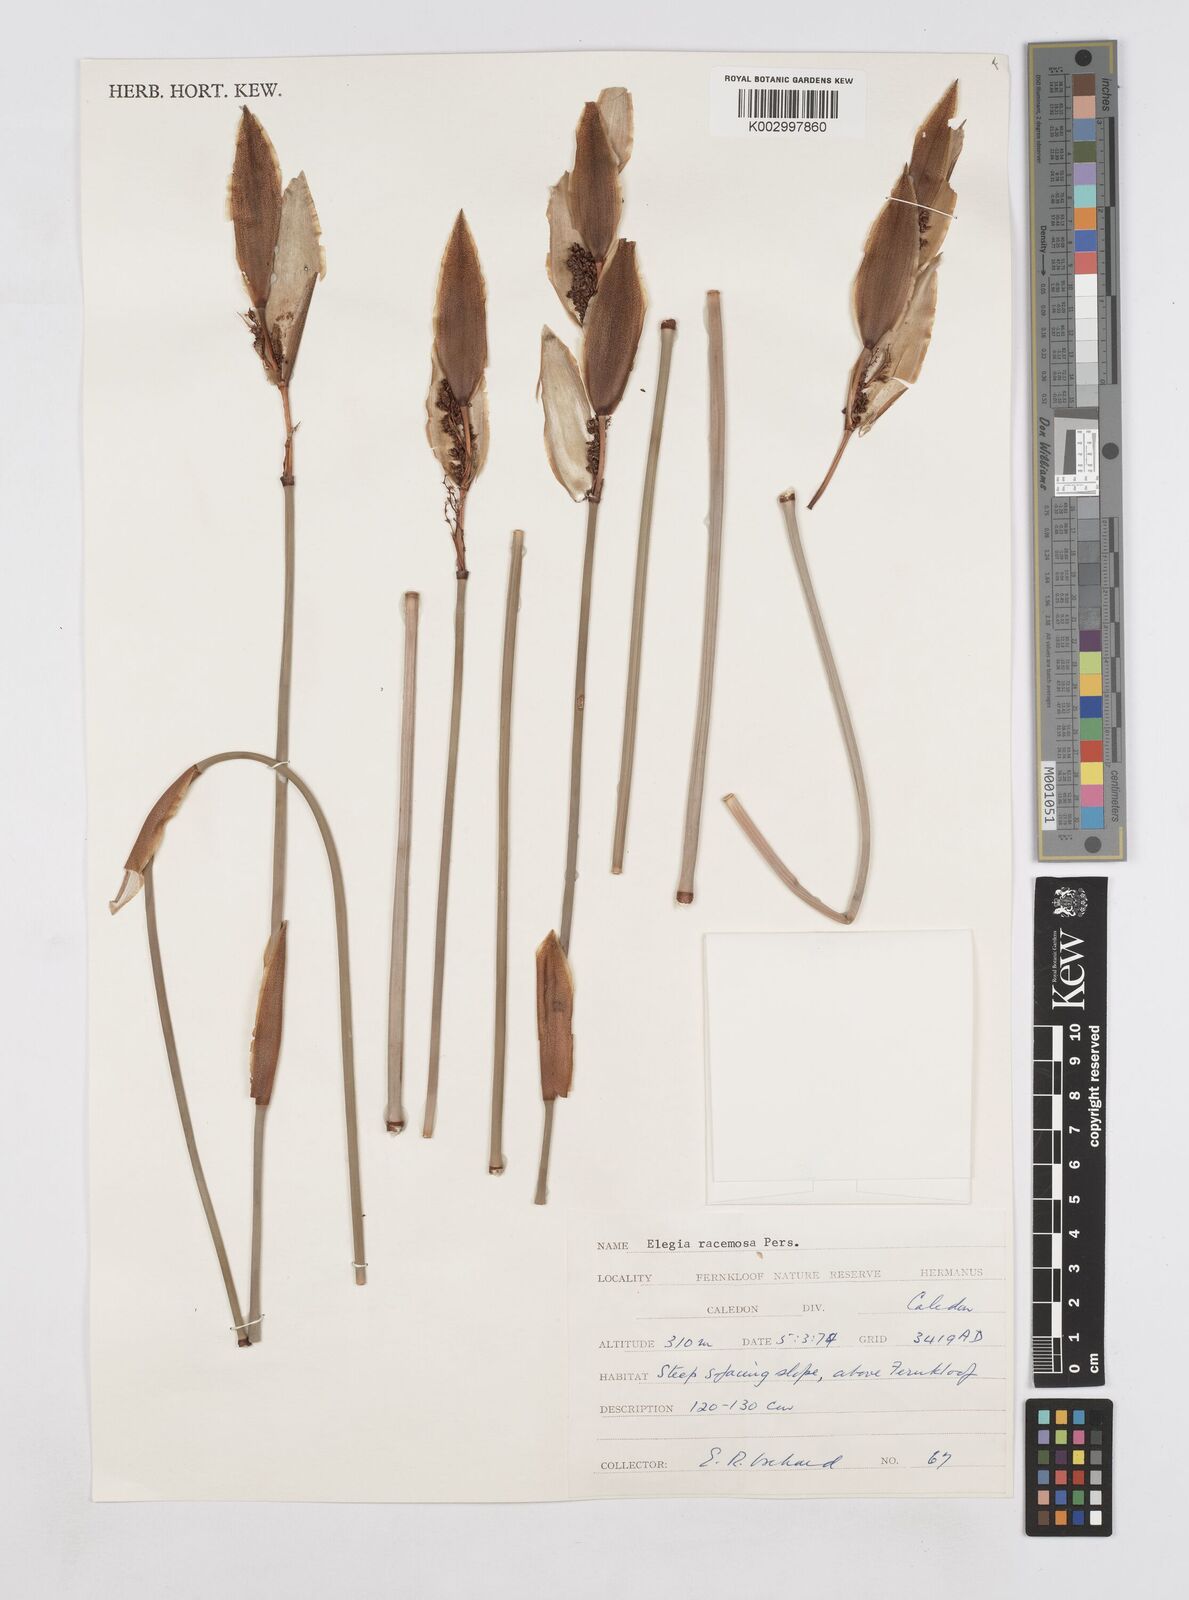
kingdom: Plantae
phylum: Tracheophyta
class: Liliopsida
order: Poales
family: Restionaceae
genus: Elegia
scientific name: Elegia racemosa
